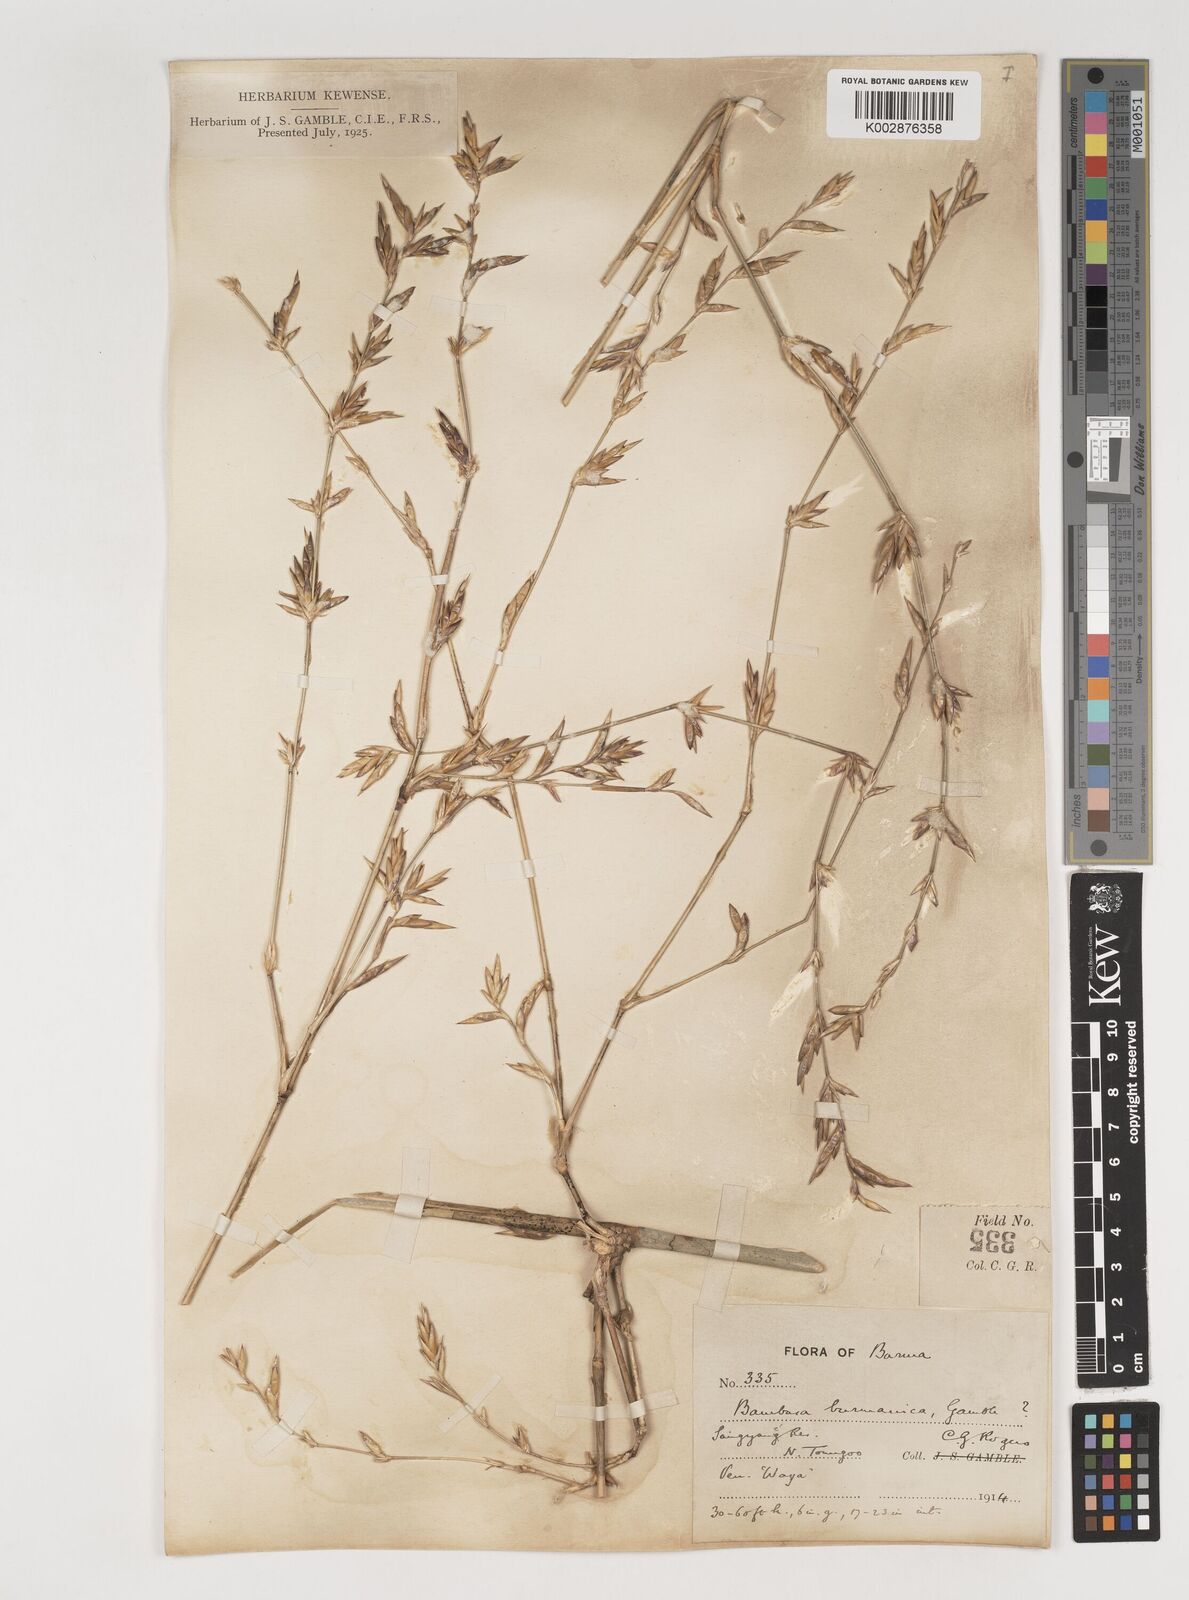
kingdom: Plantae
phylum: Tracheophyta
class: Liliopsida
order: Poales
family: Poaceae
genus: Bambusa
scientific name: Bambusa burmanica
